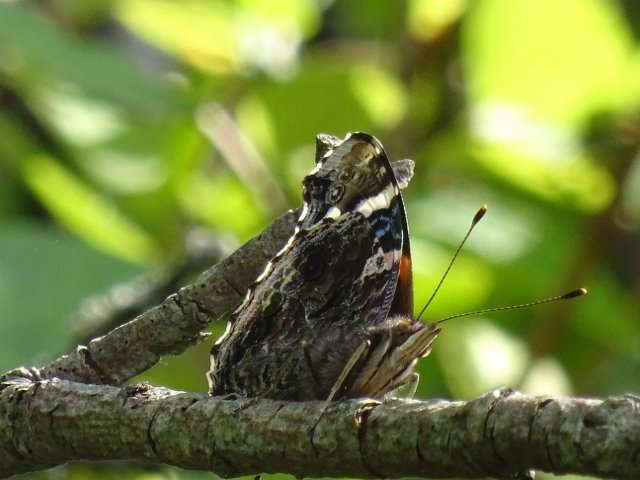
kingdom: Animalia
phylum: Arthropoda
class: Insecta
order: Lepidoptera
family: Nymphalidae
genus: Vanessa
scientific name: Vanessa atalanta
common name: Red Admiral
